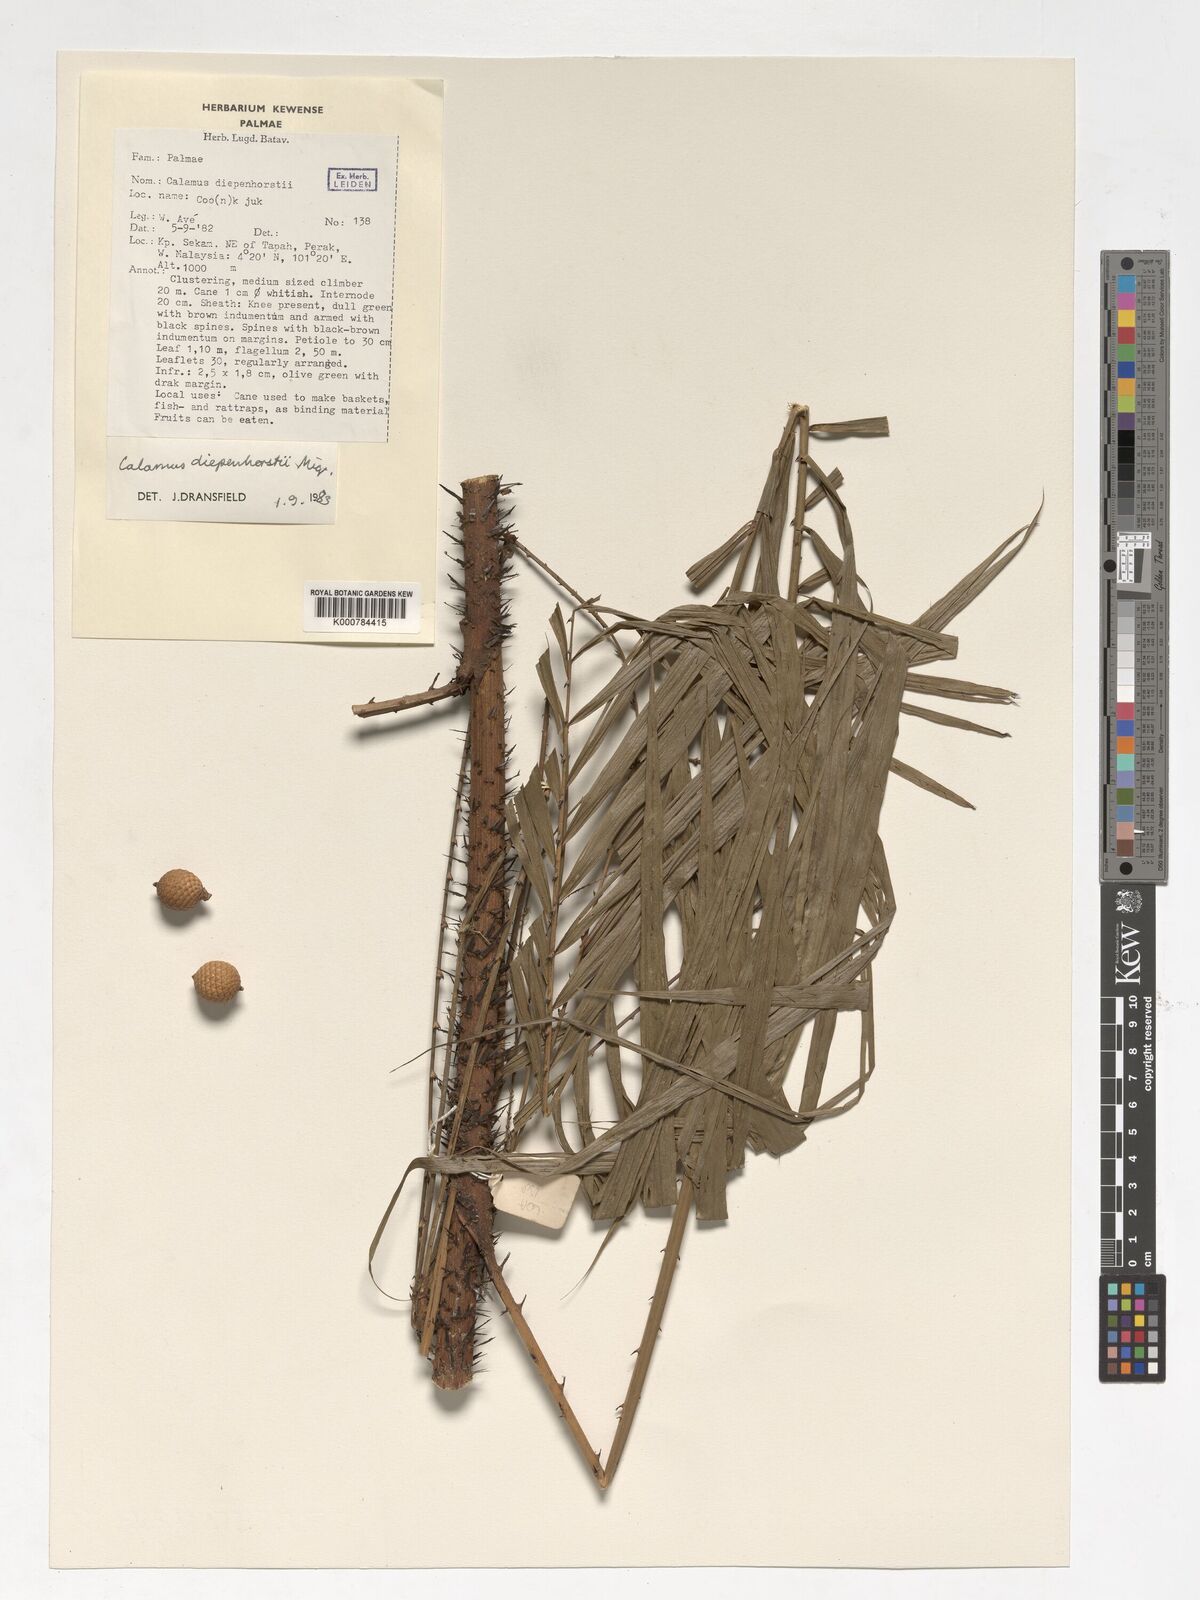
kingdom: Plantae
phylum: Tracheophyta
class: Liliopsida
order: Arecales
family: Arecaceae
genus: Calamus
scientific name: Calamus diepenhorstii
